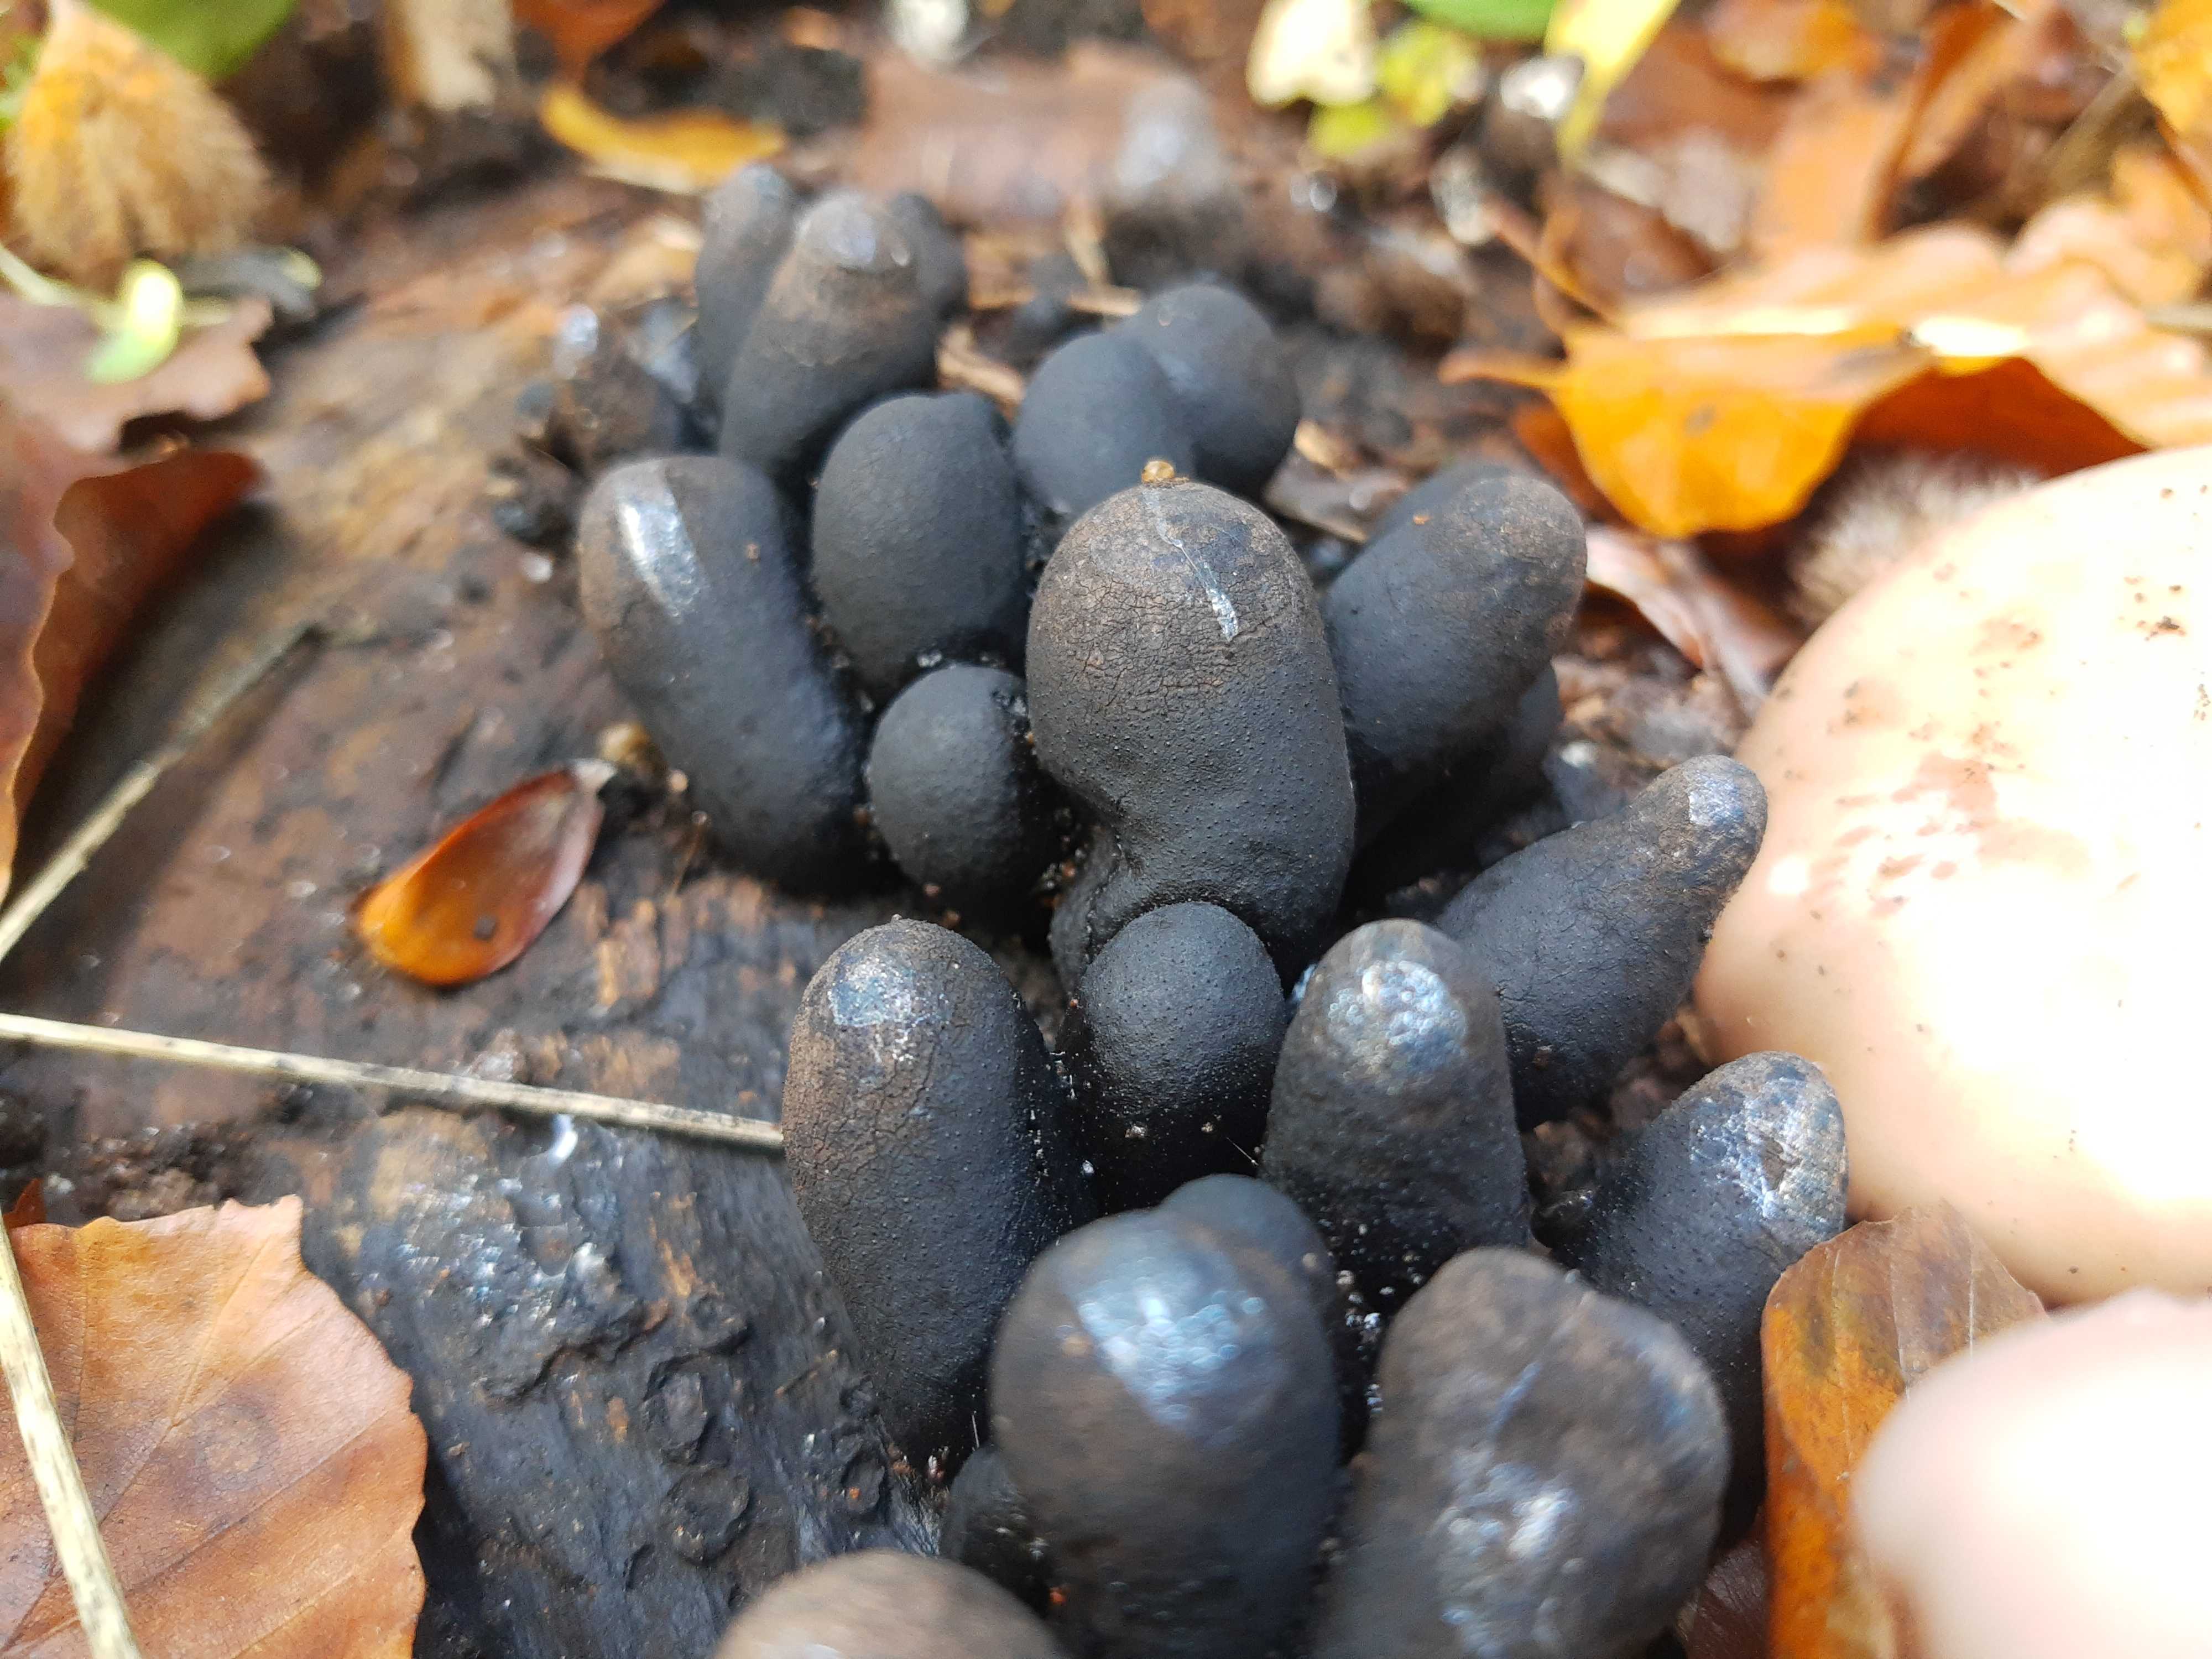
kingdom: Fungi
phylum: Ascomycota
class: Sordariomycetes
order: Xylariales
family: Xylariaceae
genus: Xylaria
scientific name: Xylaria polymorpha
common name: kølle-stødsvamp
